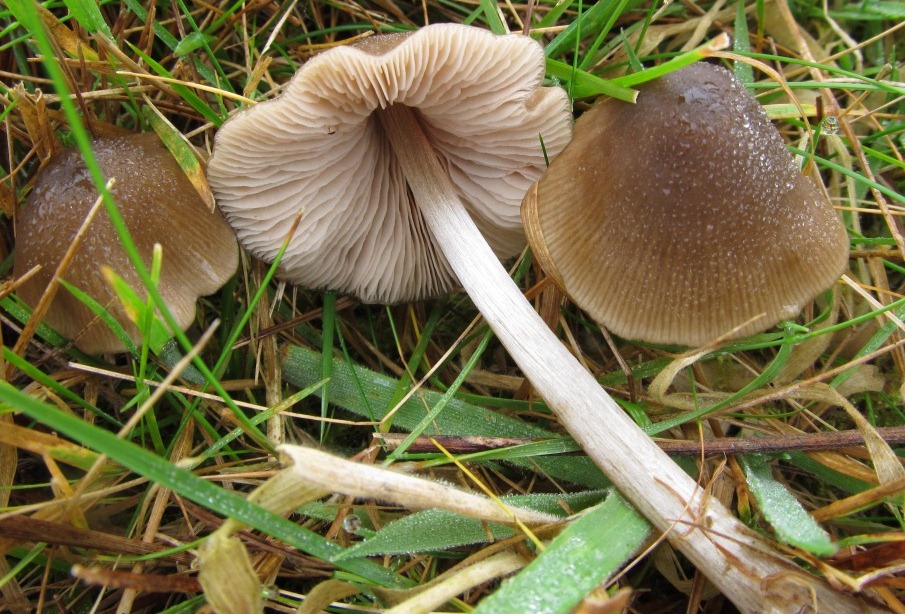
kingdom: Fungi
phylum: Basidiomycota
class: Agaricomycetes
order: Agaricales
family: Entolomataceae
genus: Entoloma
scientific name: Entoloma conferendum
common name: stjernesporet rødblad
